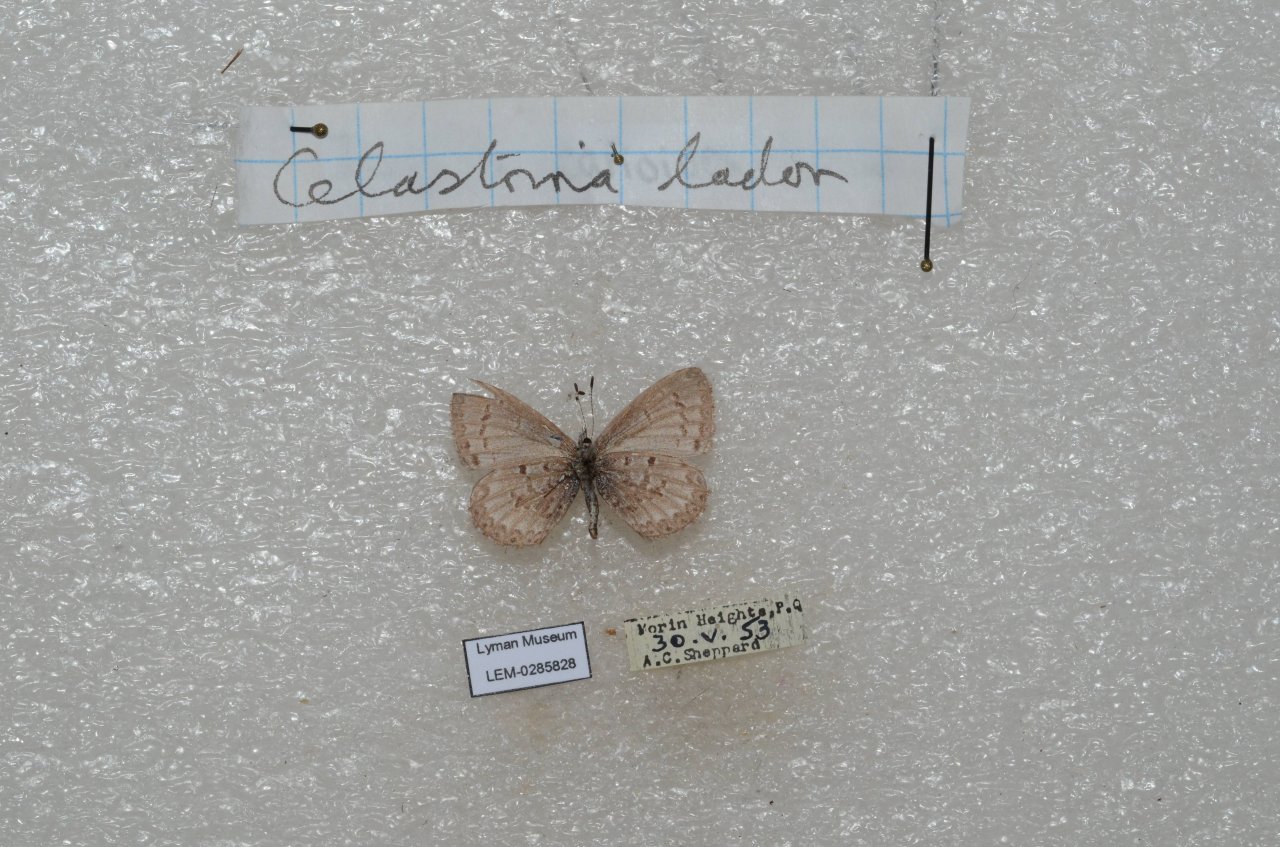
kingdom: Animalia
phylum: Arthropoda
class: Insecta
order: Lepidoptera
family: Lycaenidae
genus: Celastrina
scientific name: Celastrina lucia
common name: Northern Spring Azure
